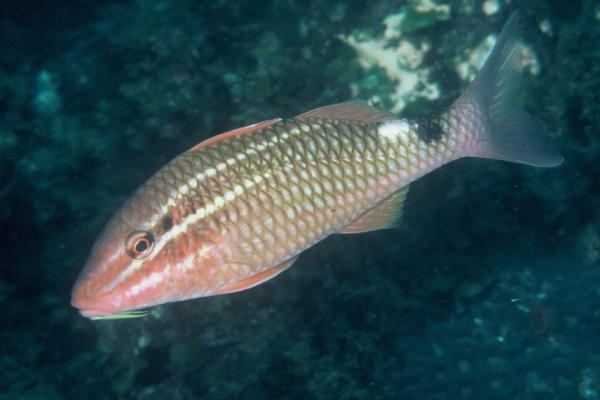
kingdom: Animalia
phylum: Chordata
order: Perciformes
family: Mullidae
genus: Parupeneus
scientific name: Parupeneus ciliatus
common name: White-lined goatfish
